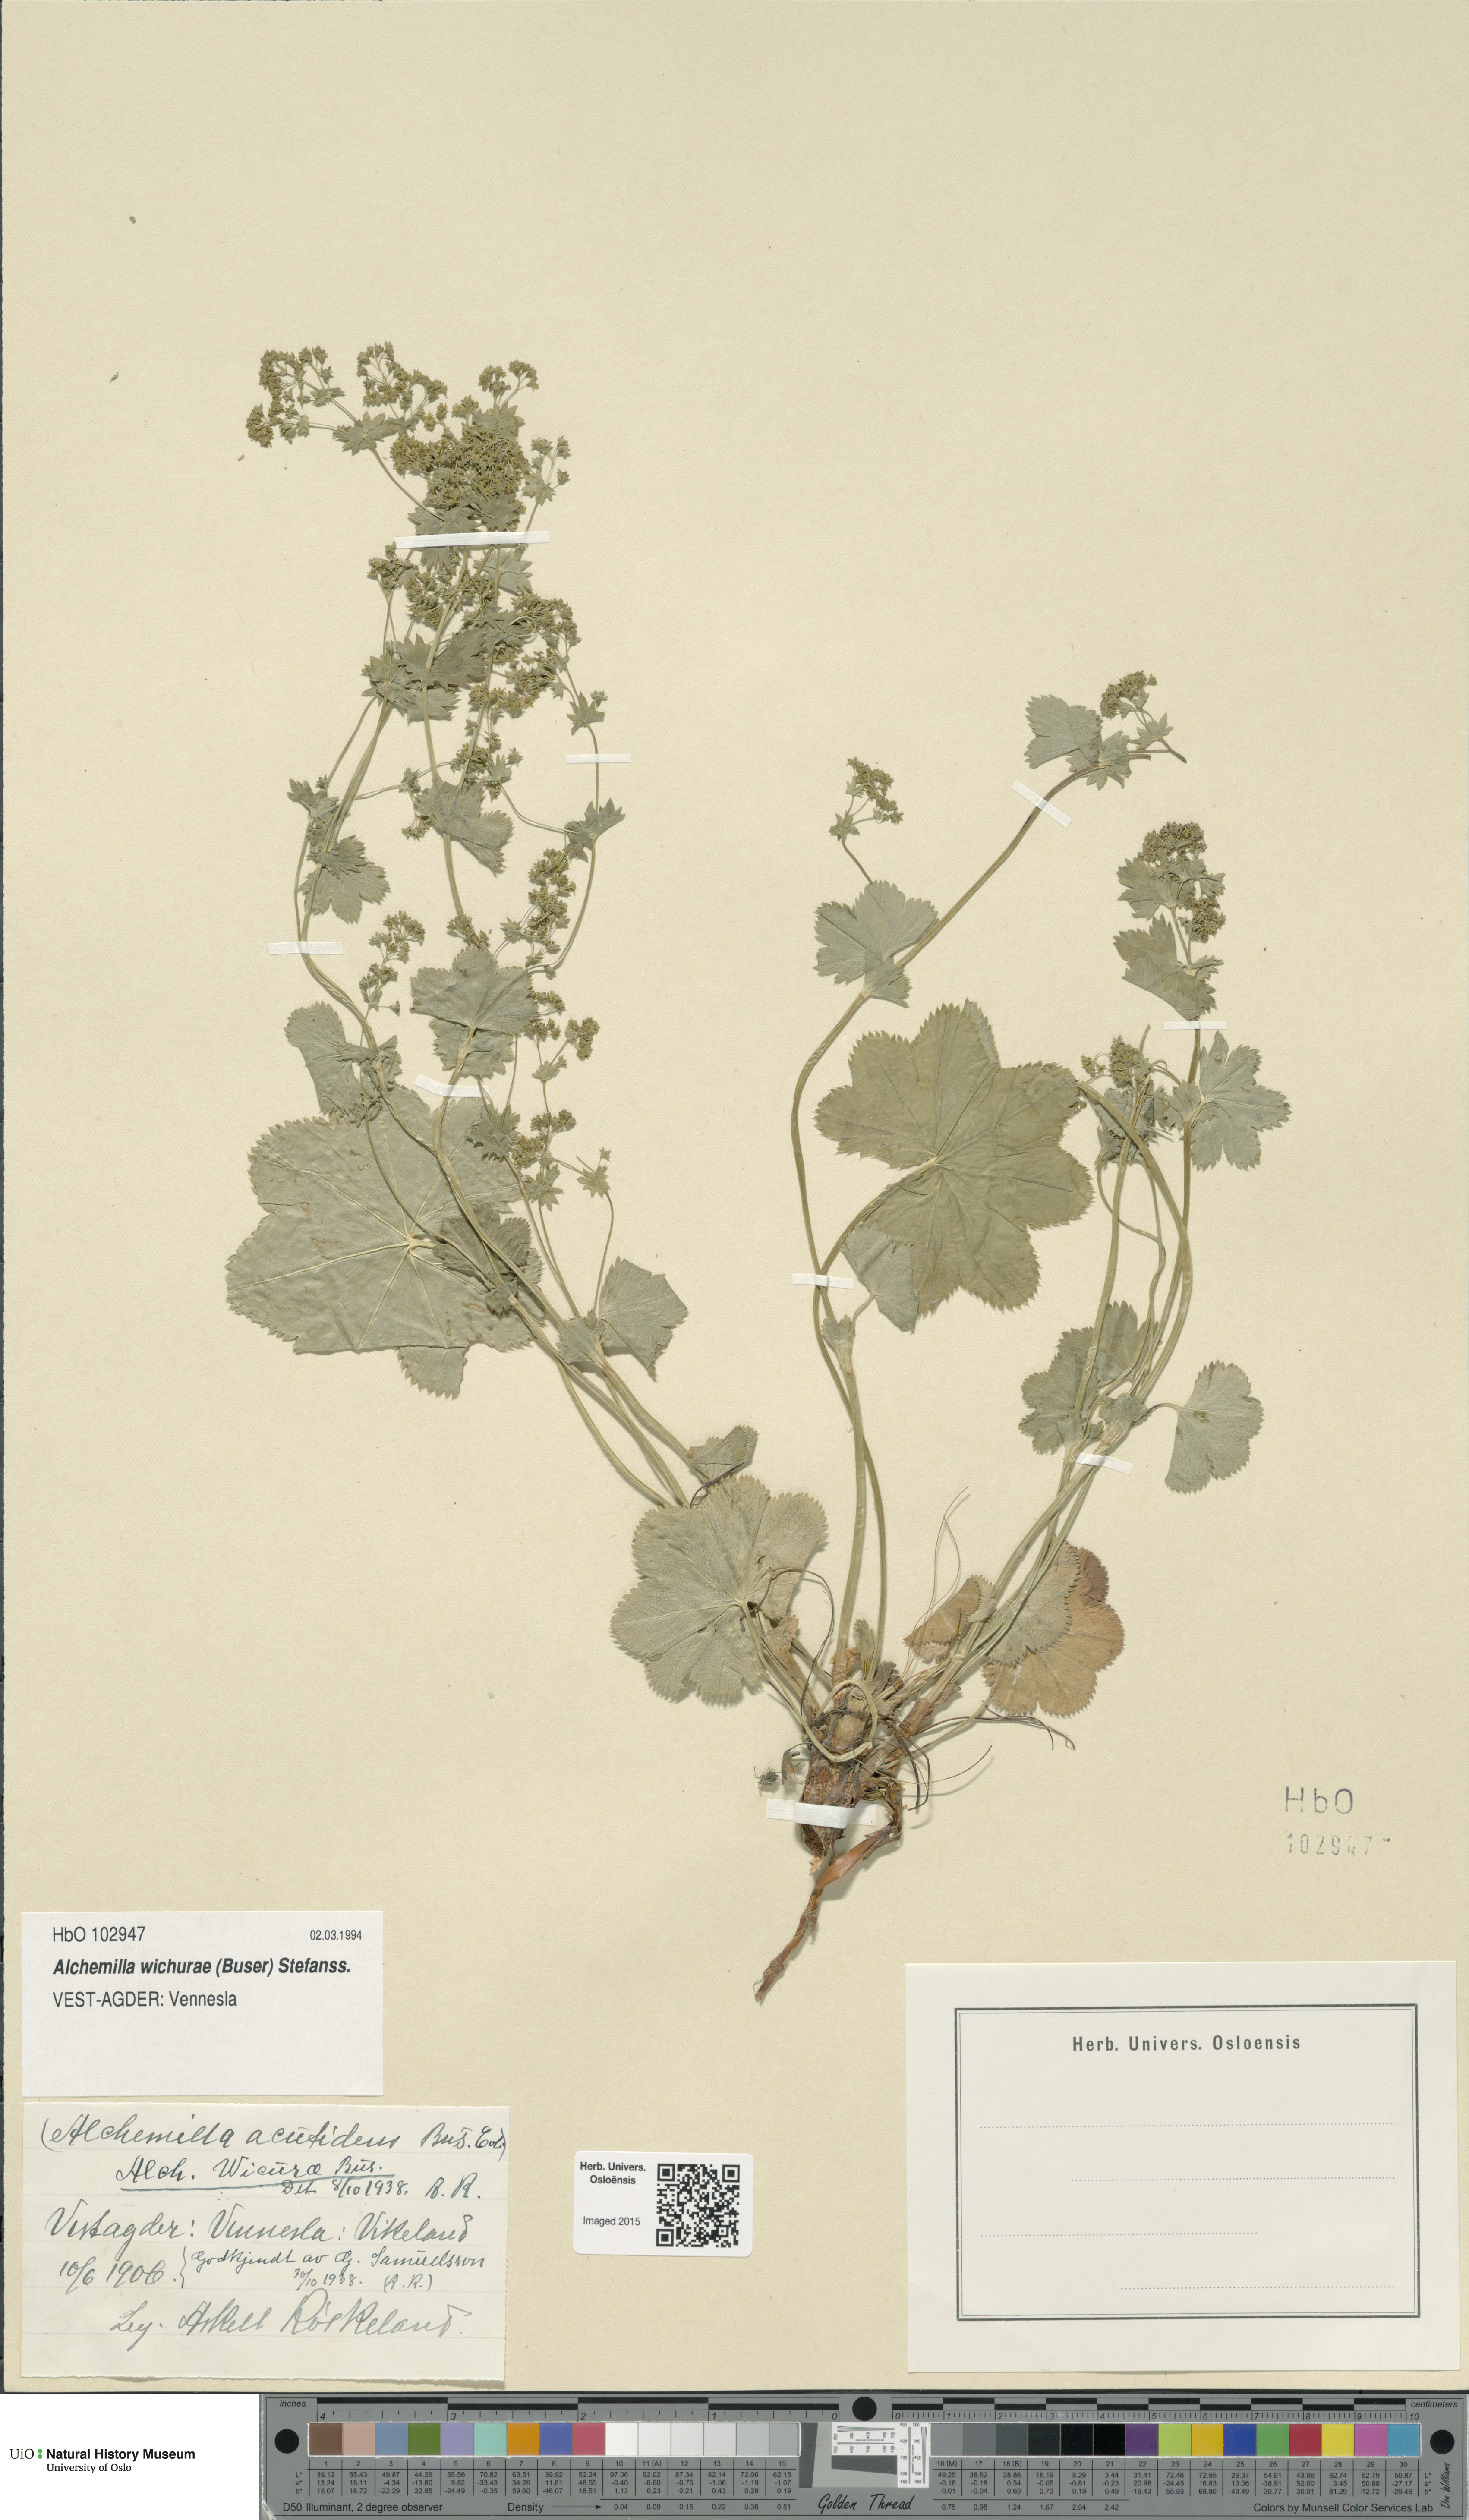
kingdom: Plantae
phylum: Tracheophyta
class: Magnoliopsida
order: Rosales
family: Rosaceae
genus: Alchemilla
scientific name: Alchemilla wichurae
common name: Rock lady's mantle
